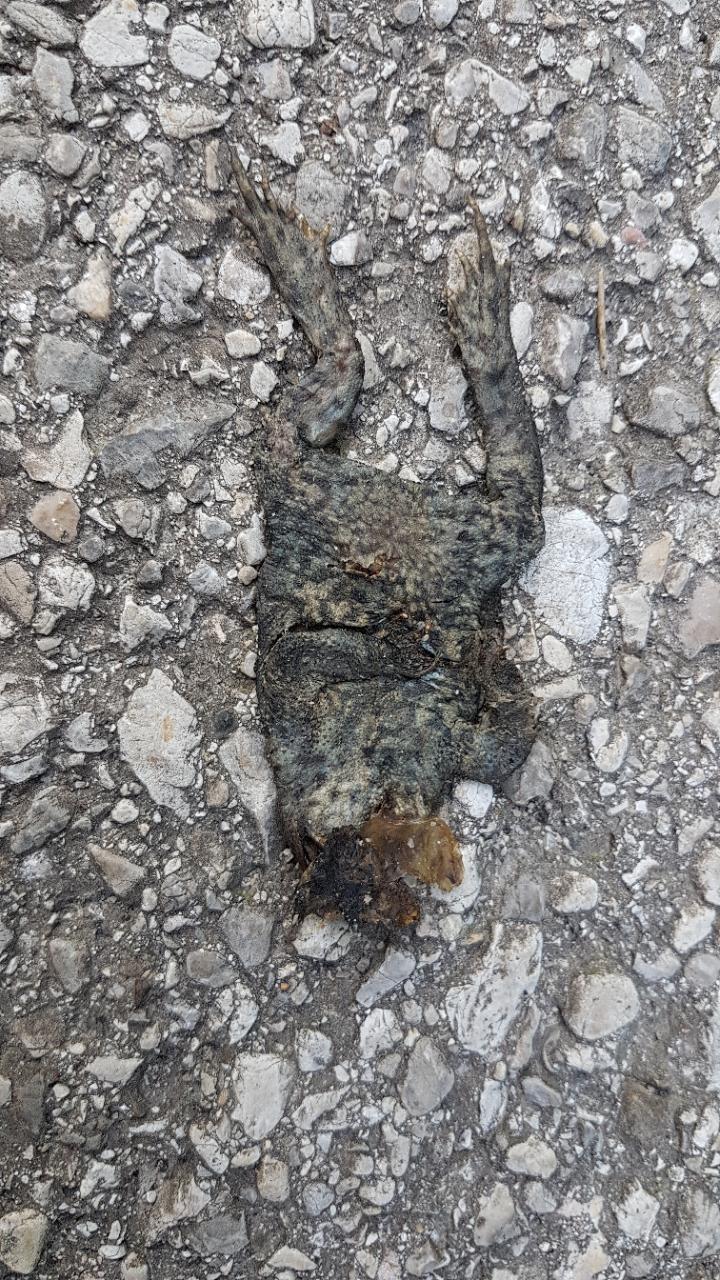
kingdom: Animalia
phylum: Chordata
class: Amphibia
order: Anura
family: Bufonidae
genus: Bufo
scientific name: Bufo bufo
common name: Common toad
